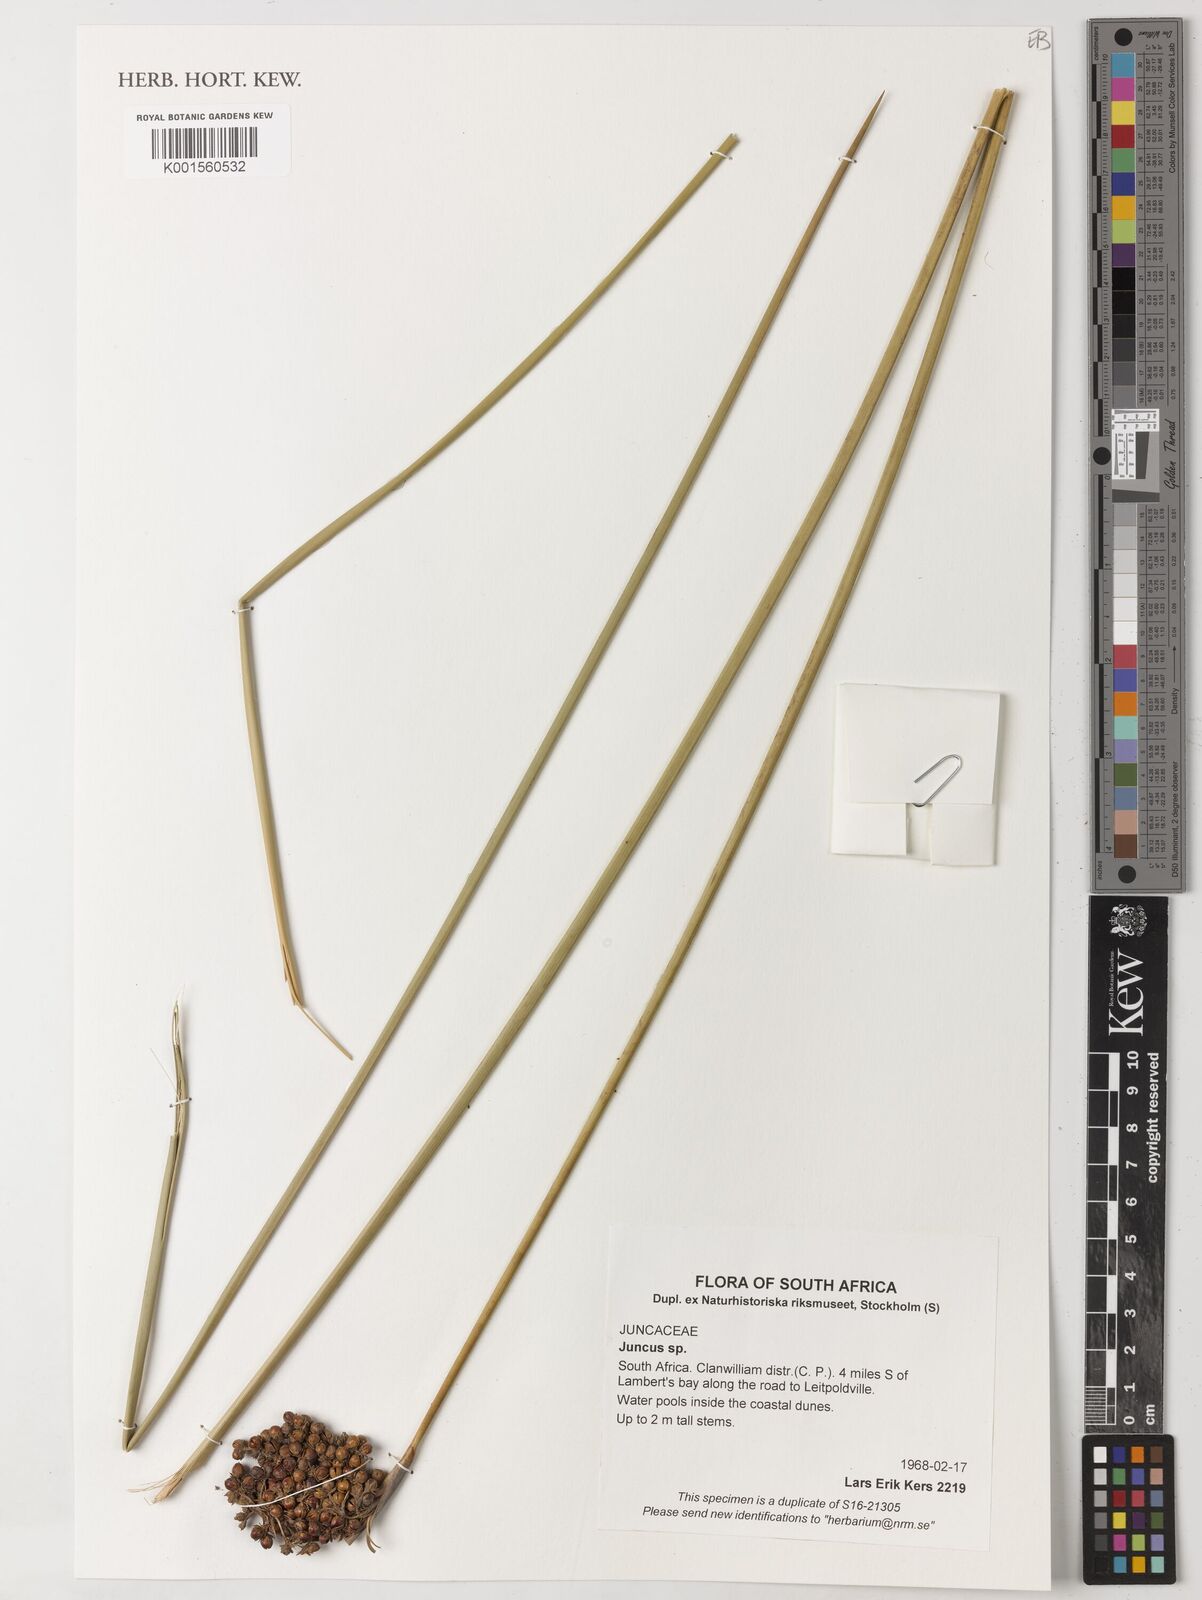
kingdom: Plantae
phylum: Tracheophyta
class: Liliopsida
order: Poales
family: Juncaceae
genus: Juncus
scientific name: Juncus
